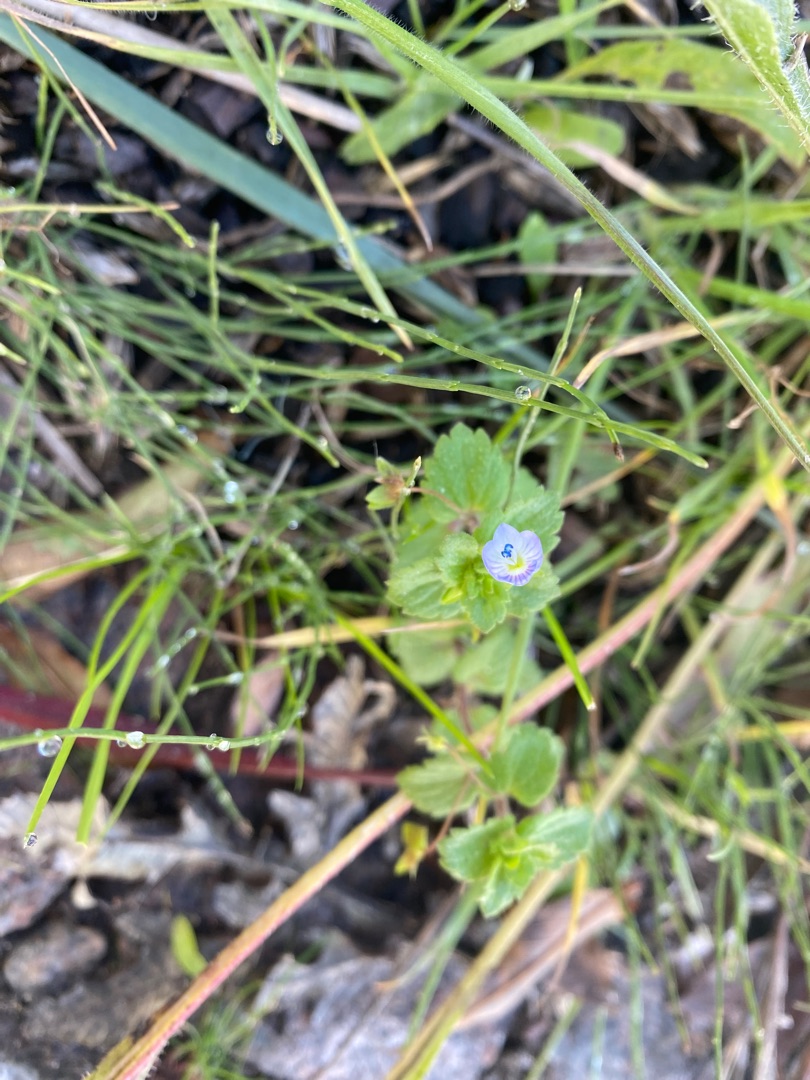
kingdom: Plantae
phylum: Tracheophyta
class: Magnoliopsida
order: Lamiales
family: Plantaginaceae
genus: Veronica
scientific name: Veronica persica
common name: Storkronet ærenpris
